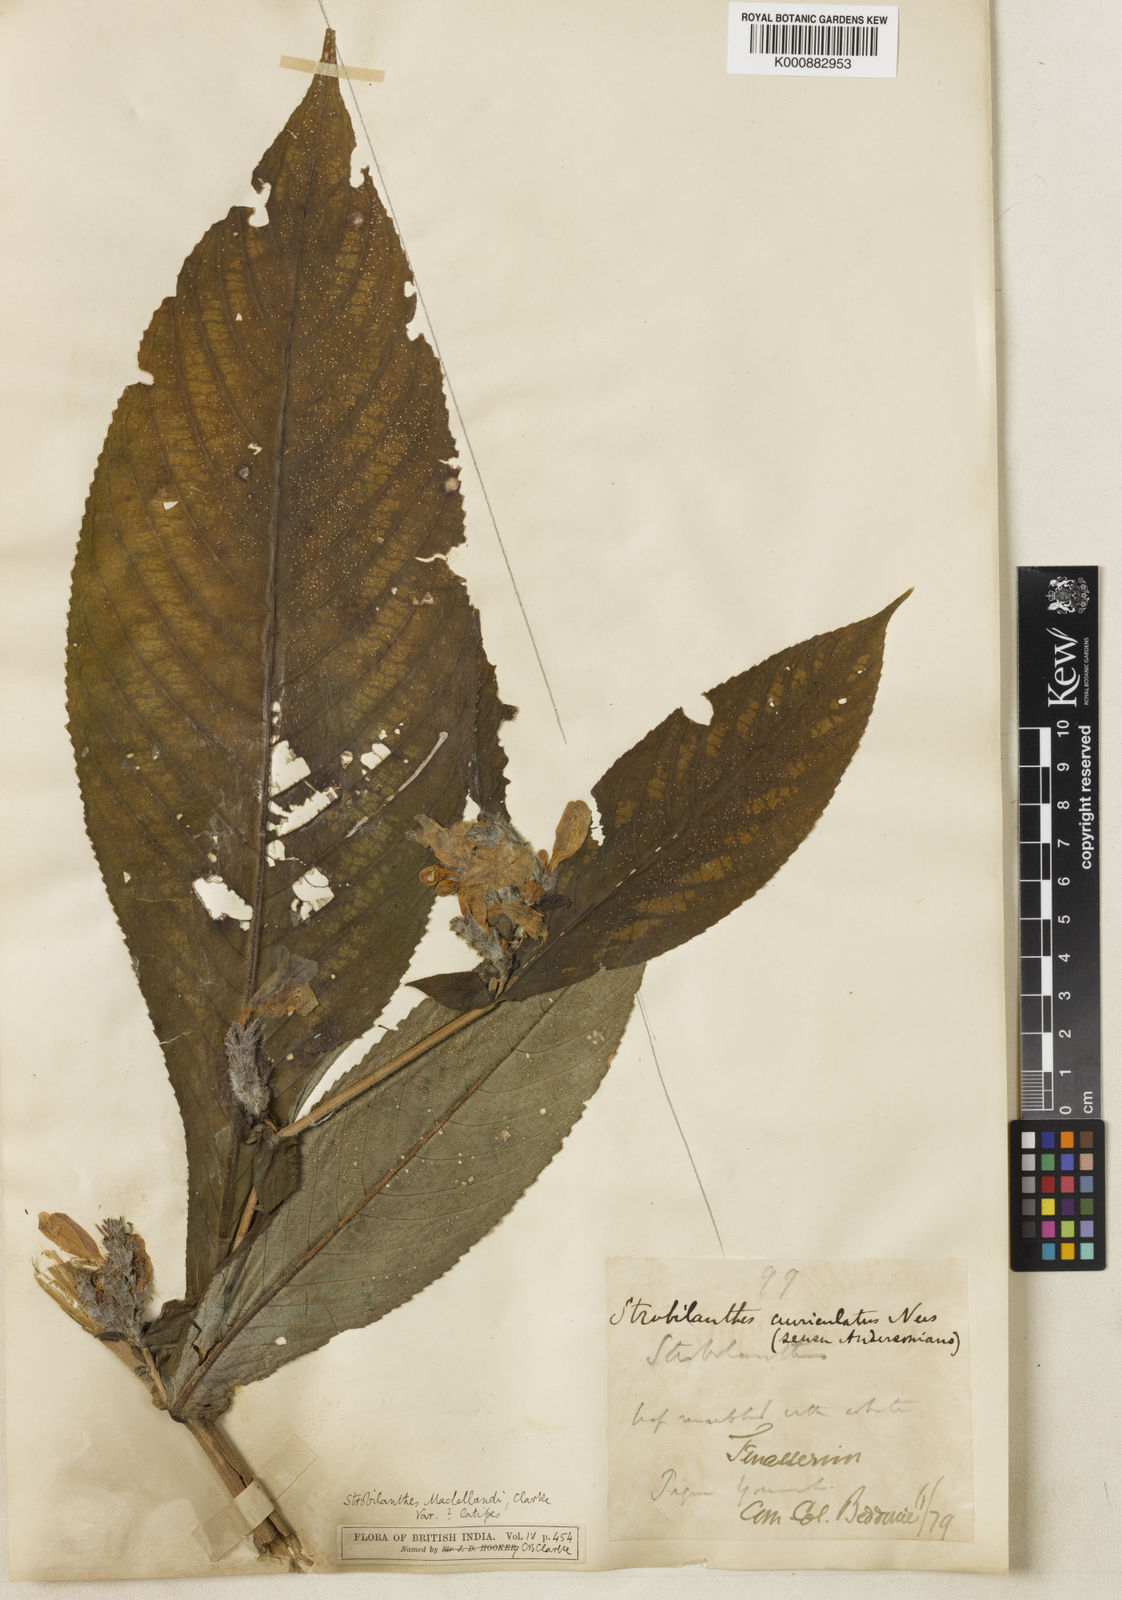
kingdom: Plantae
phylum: Tracheophyta
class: Magnoliopsida
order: Lamiales
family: Acanthaceae
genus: Strobilanthes
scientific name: Strobilanthes auriculata
